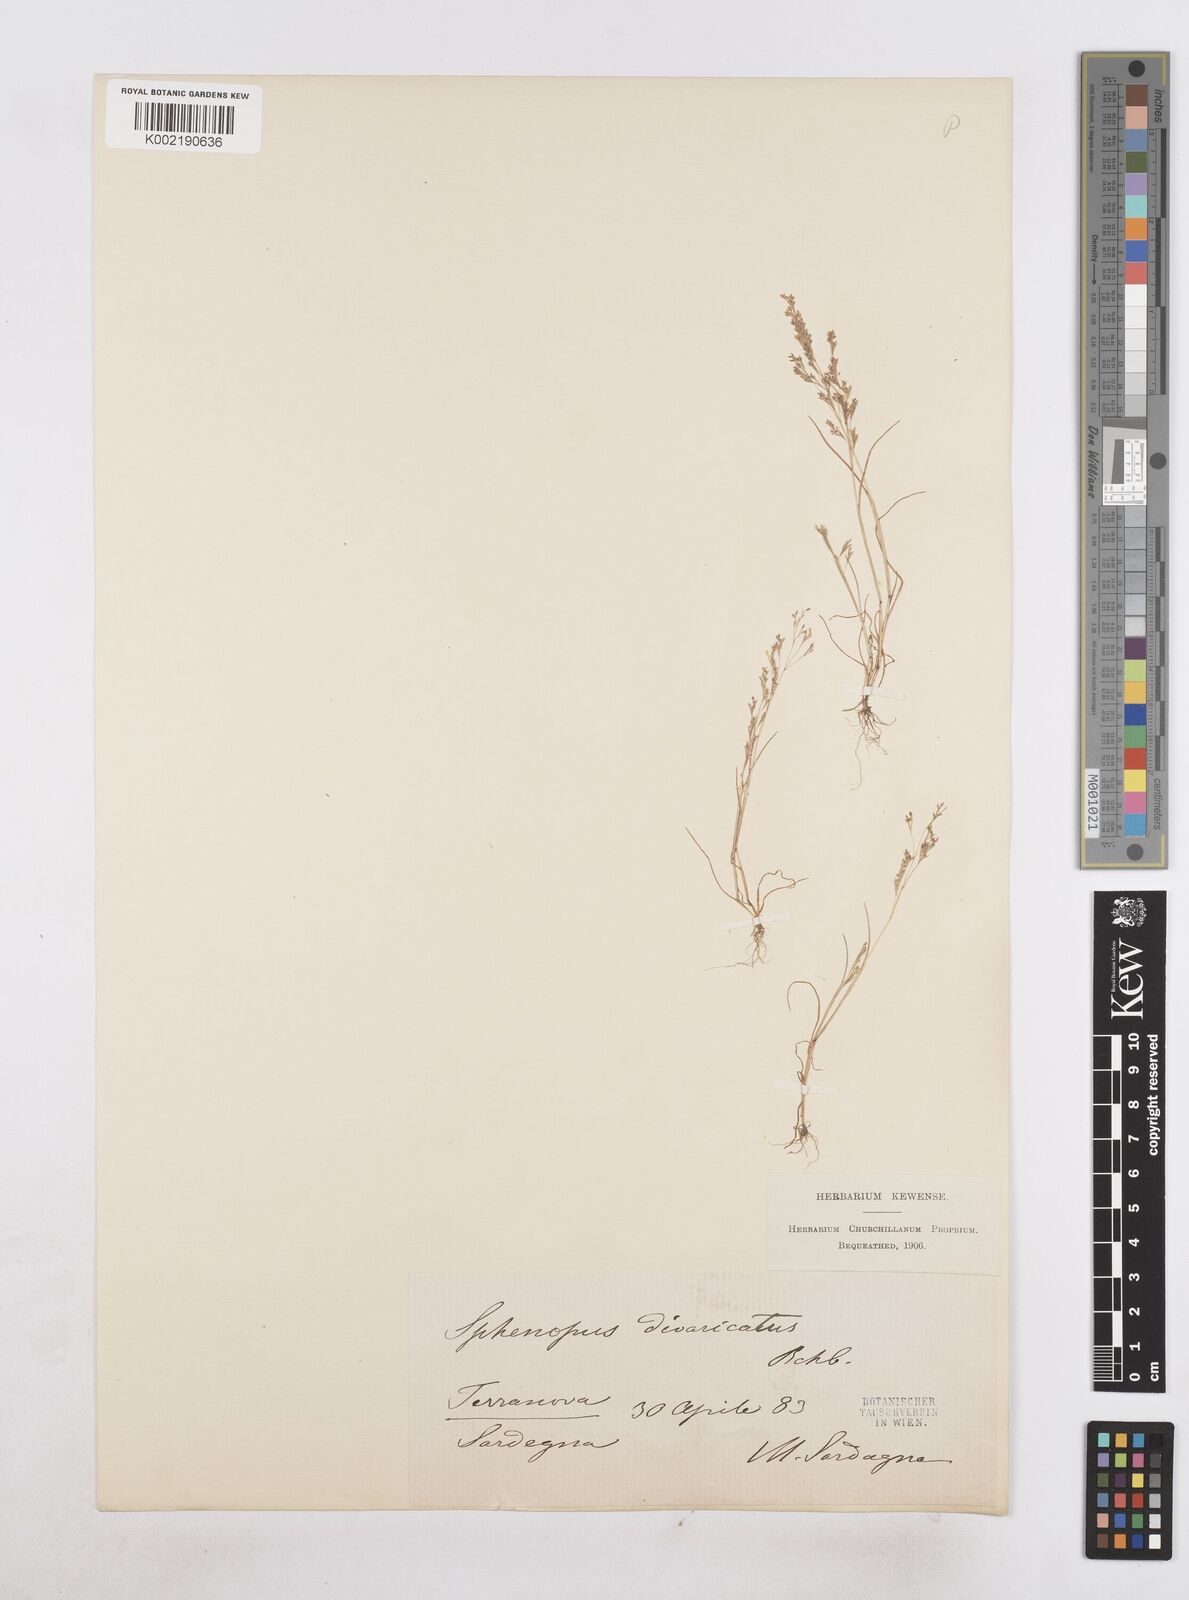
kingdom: Plantae
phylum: Tracheophyta
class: Liliopsida
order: Poales
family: Poaceae
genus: Sphenopus
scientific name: Sphenopus divaricatus
